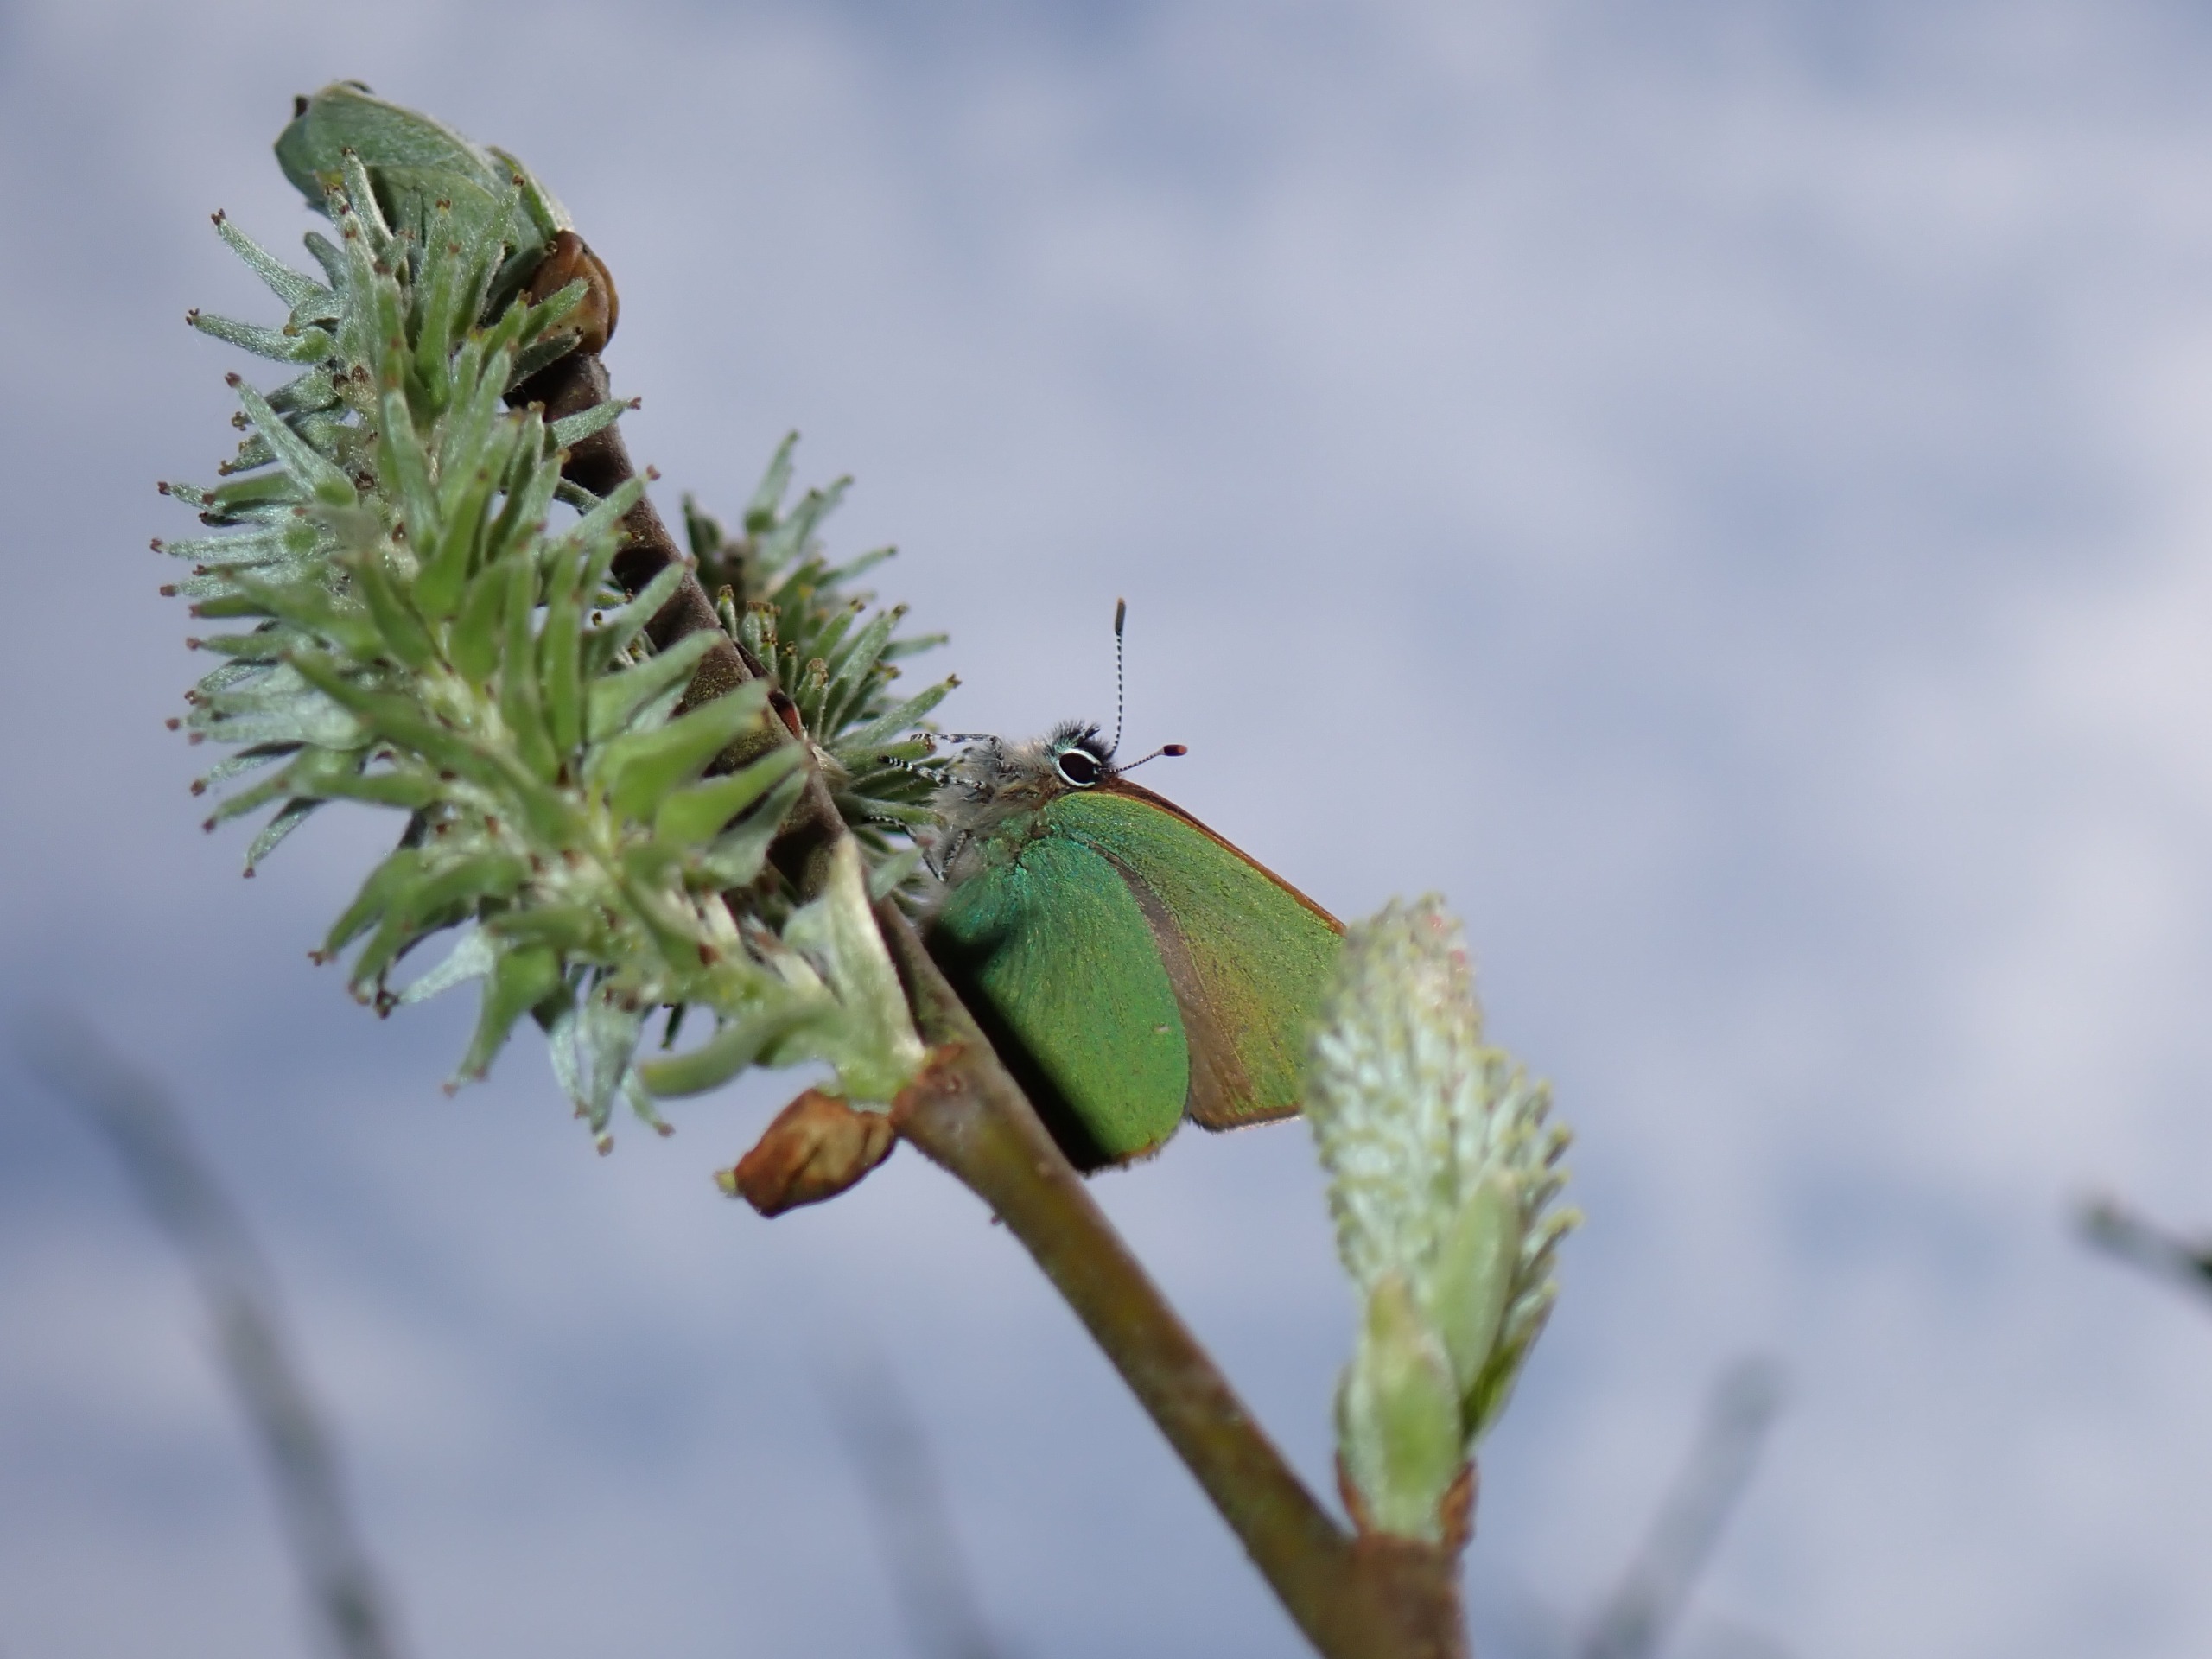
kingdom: Animalia
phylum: Arthropoda
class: Insecta
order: Lepidoptera
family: Lycaenidae
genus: Callophrys
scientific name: Callophrys rubi
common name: Grøn busksommerfugl
